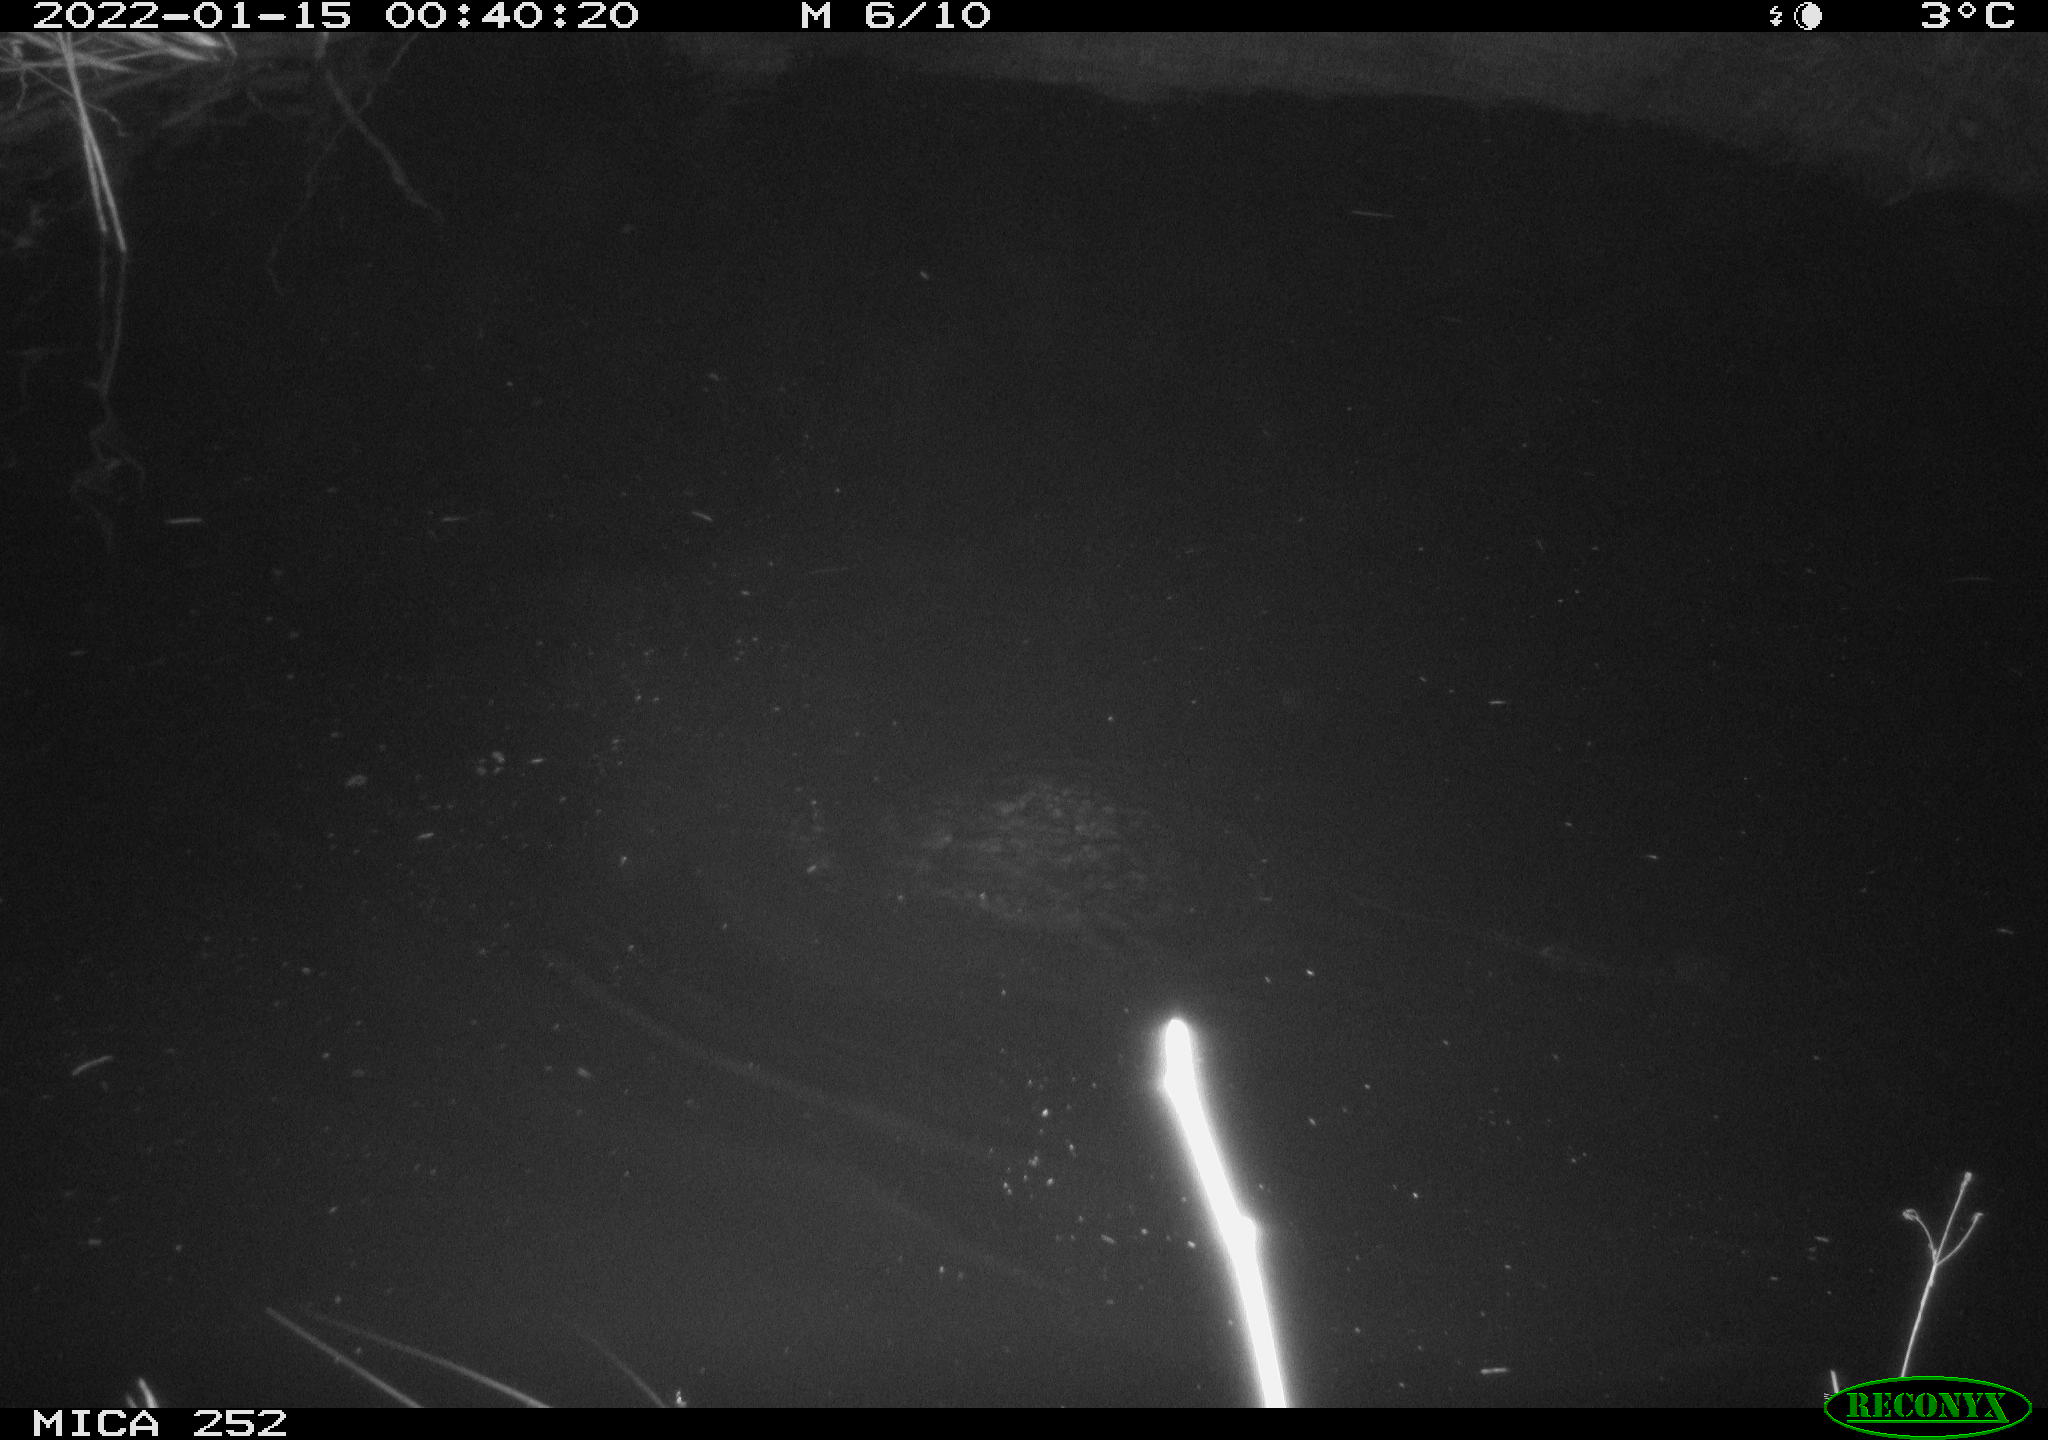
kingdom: Animalia
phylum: Chordata
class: Mammalia
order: Rodentia
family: Castoridae
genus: Castor
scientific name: Castor fiber
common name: Eurasian beaver
